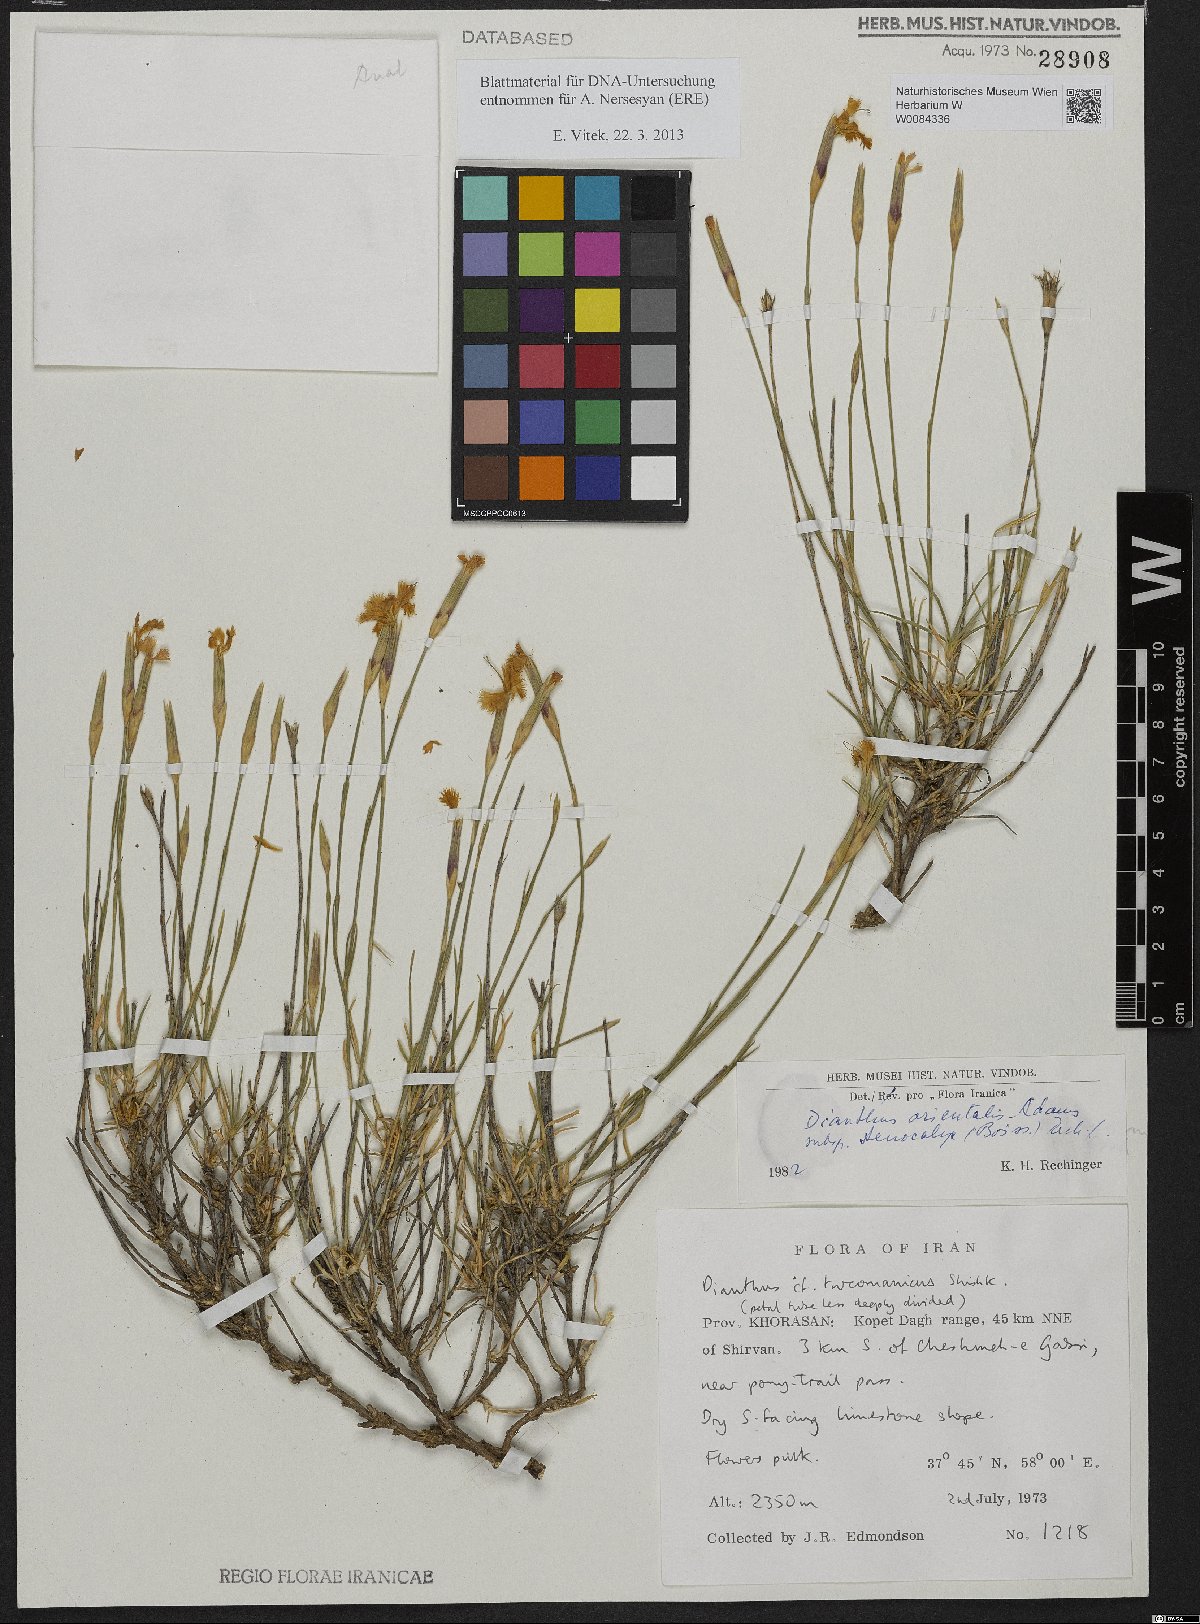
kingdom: Plantae
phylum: Tracheophyta
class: Magnoliopsida
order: Caryophyllales
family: Caryophyllaceae
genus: Dianthus
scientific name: Dianthus orientalis
